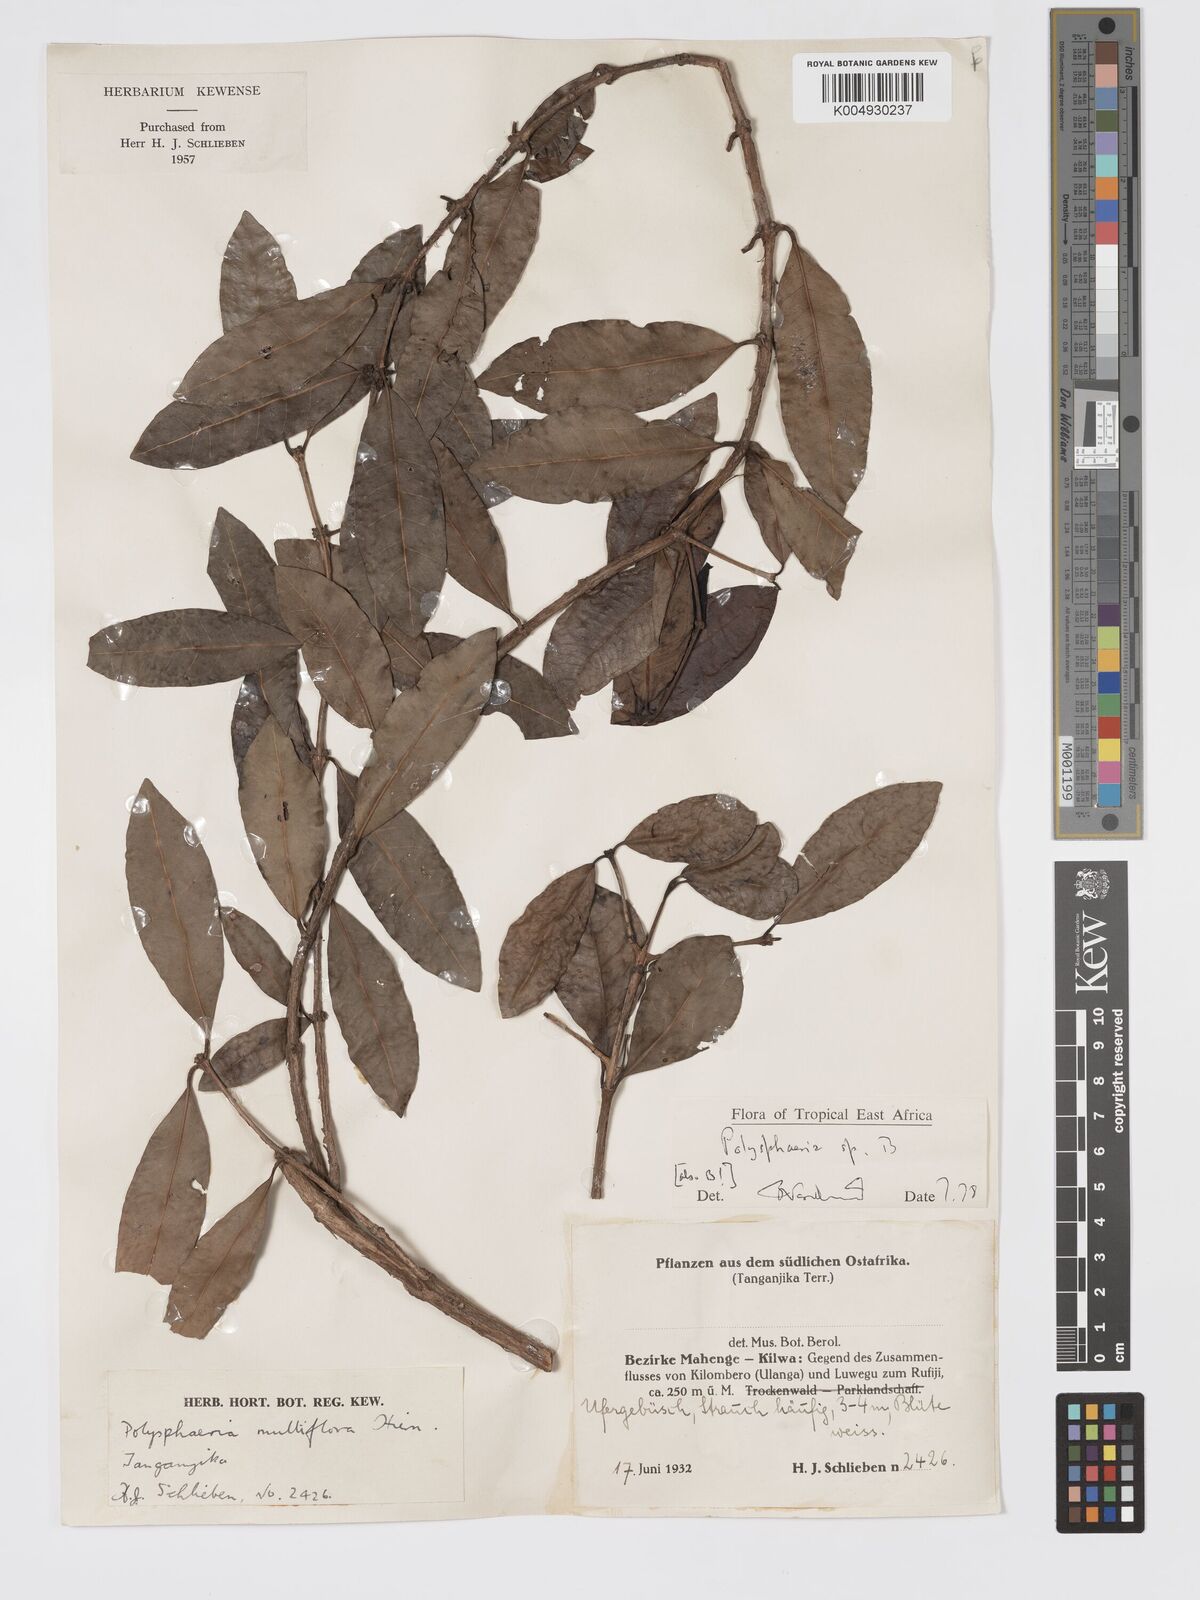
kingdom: Plantae
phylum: Tracheophyta
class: Magnoliopsida
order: Gentianales
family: Rubiaceae
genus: Polysphaeria
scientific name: Polysphaeria
